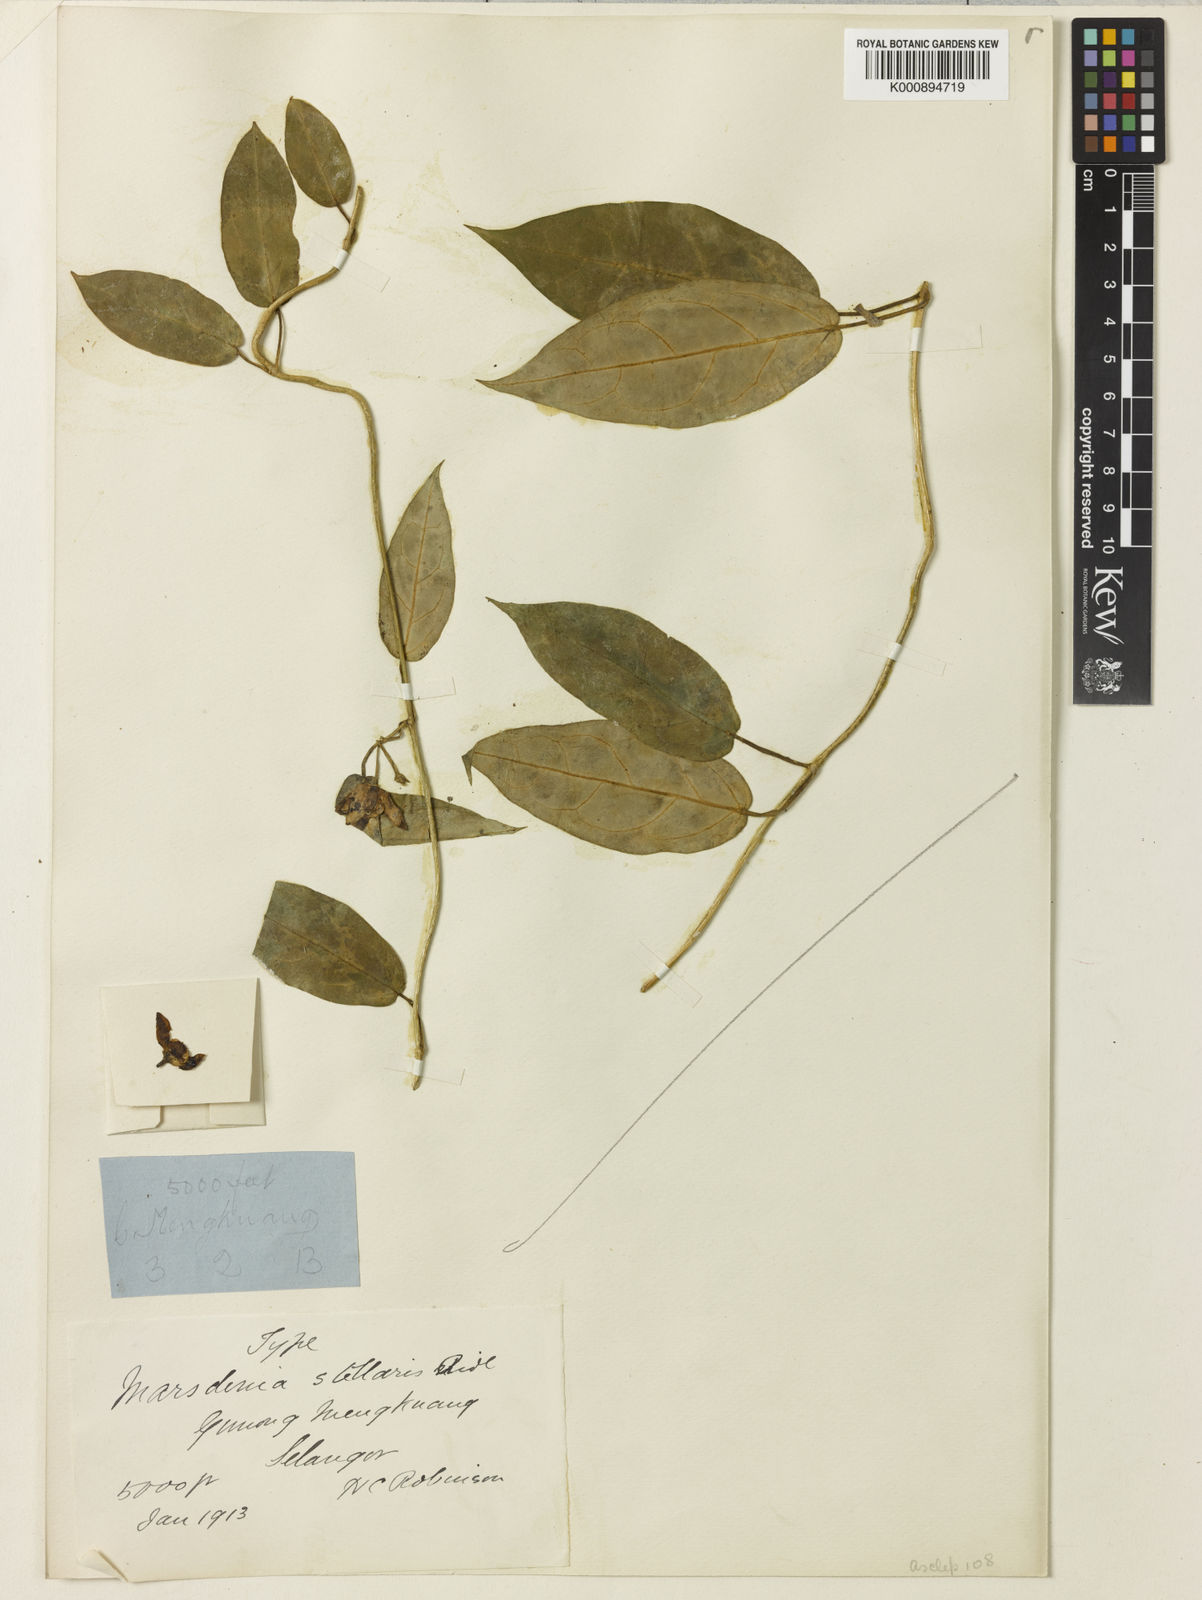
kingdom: Plantae
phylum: Tracheophyta
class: Magnoliopsida
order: Gentianales
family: Apocynaceae
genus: Heterostemma
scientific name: Heterostemma andersonii
